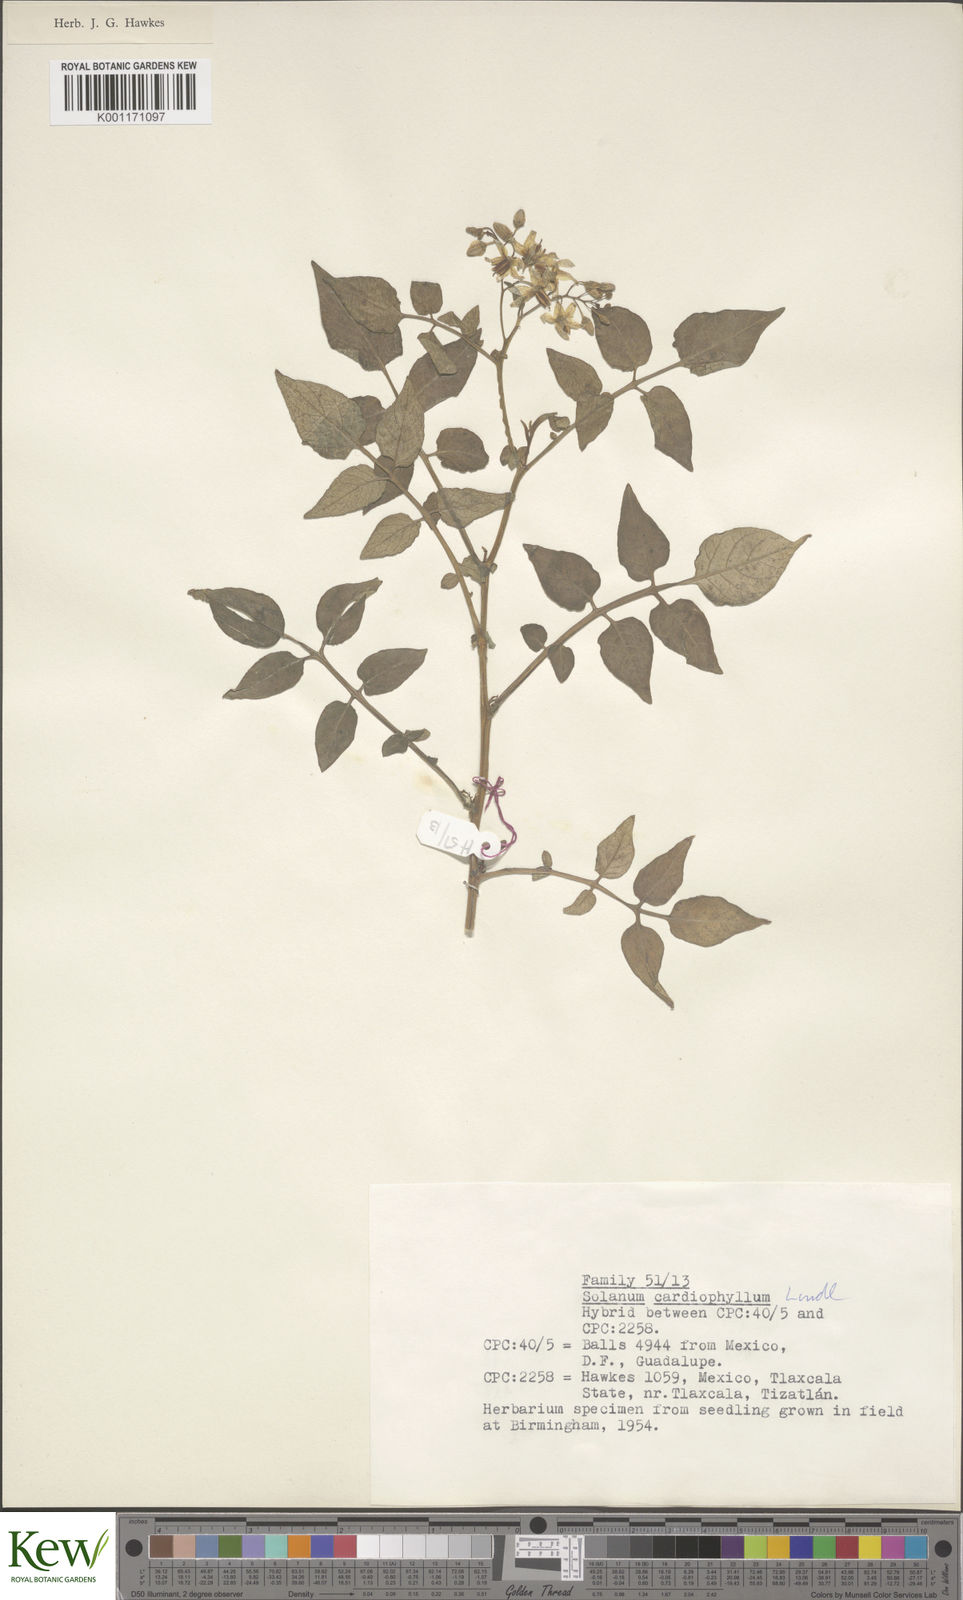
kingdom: Plantae
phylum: Tracheophyta
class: Magnoliopsida
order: Solanales
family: Solanaceae
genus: Solanum
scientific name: Solanum cardiophyllum
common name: Heartleaf horsenettle
